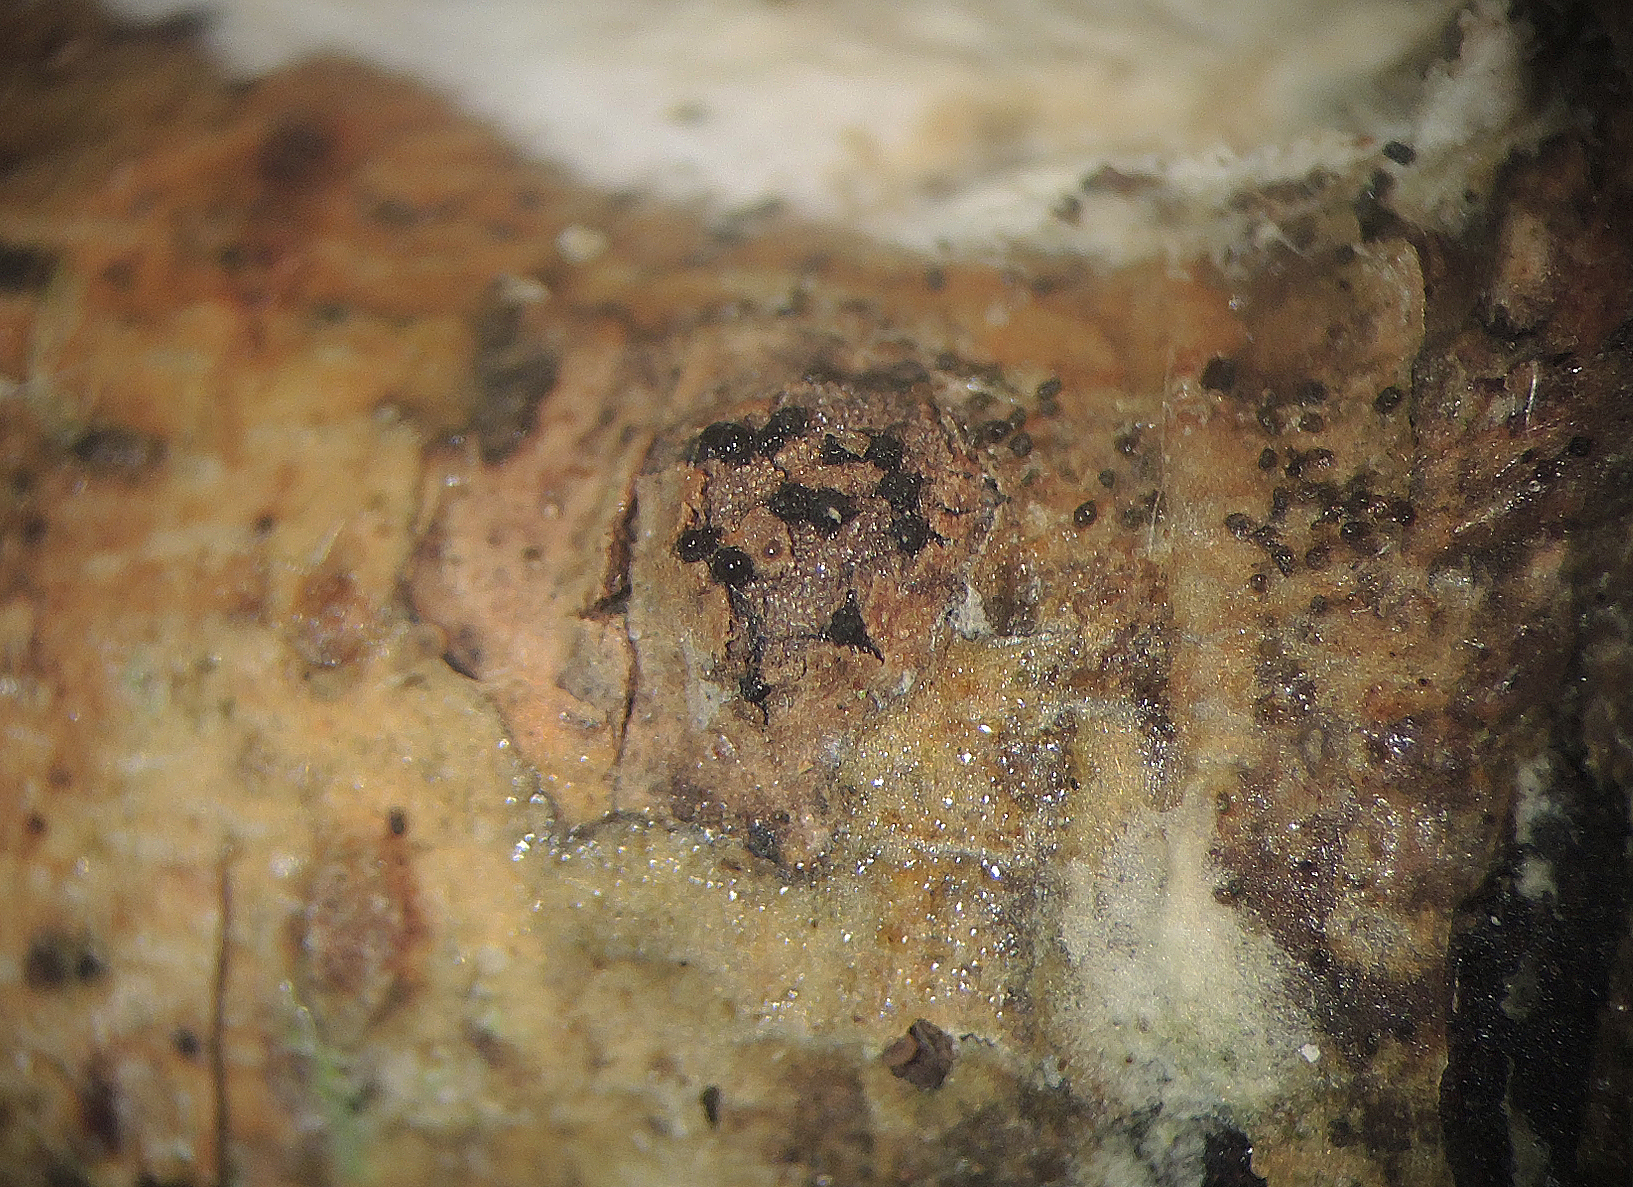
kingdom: Fungi
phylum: Ascomycota
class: Sordariomycetes
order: Xylariales
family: Diatrypaceae
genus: Diatrypella
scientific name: Diatrypella
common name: kulskorpe
